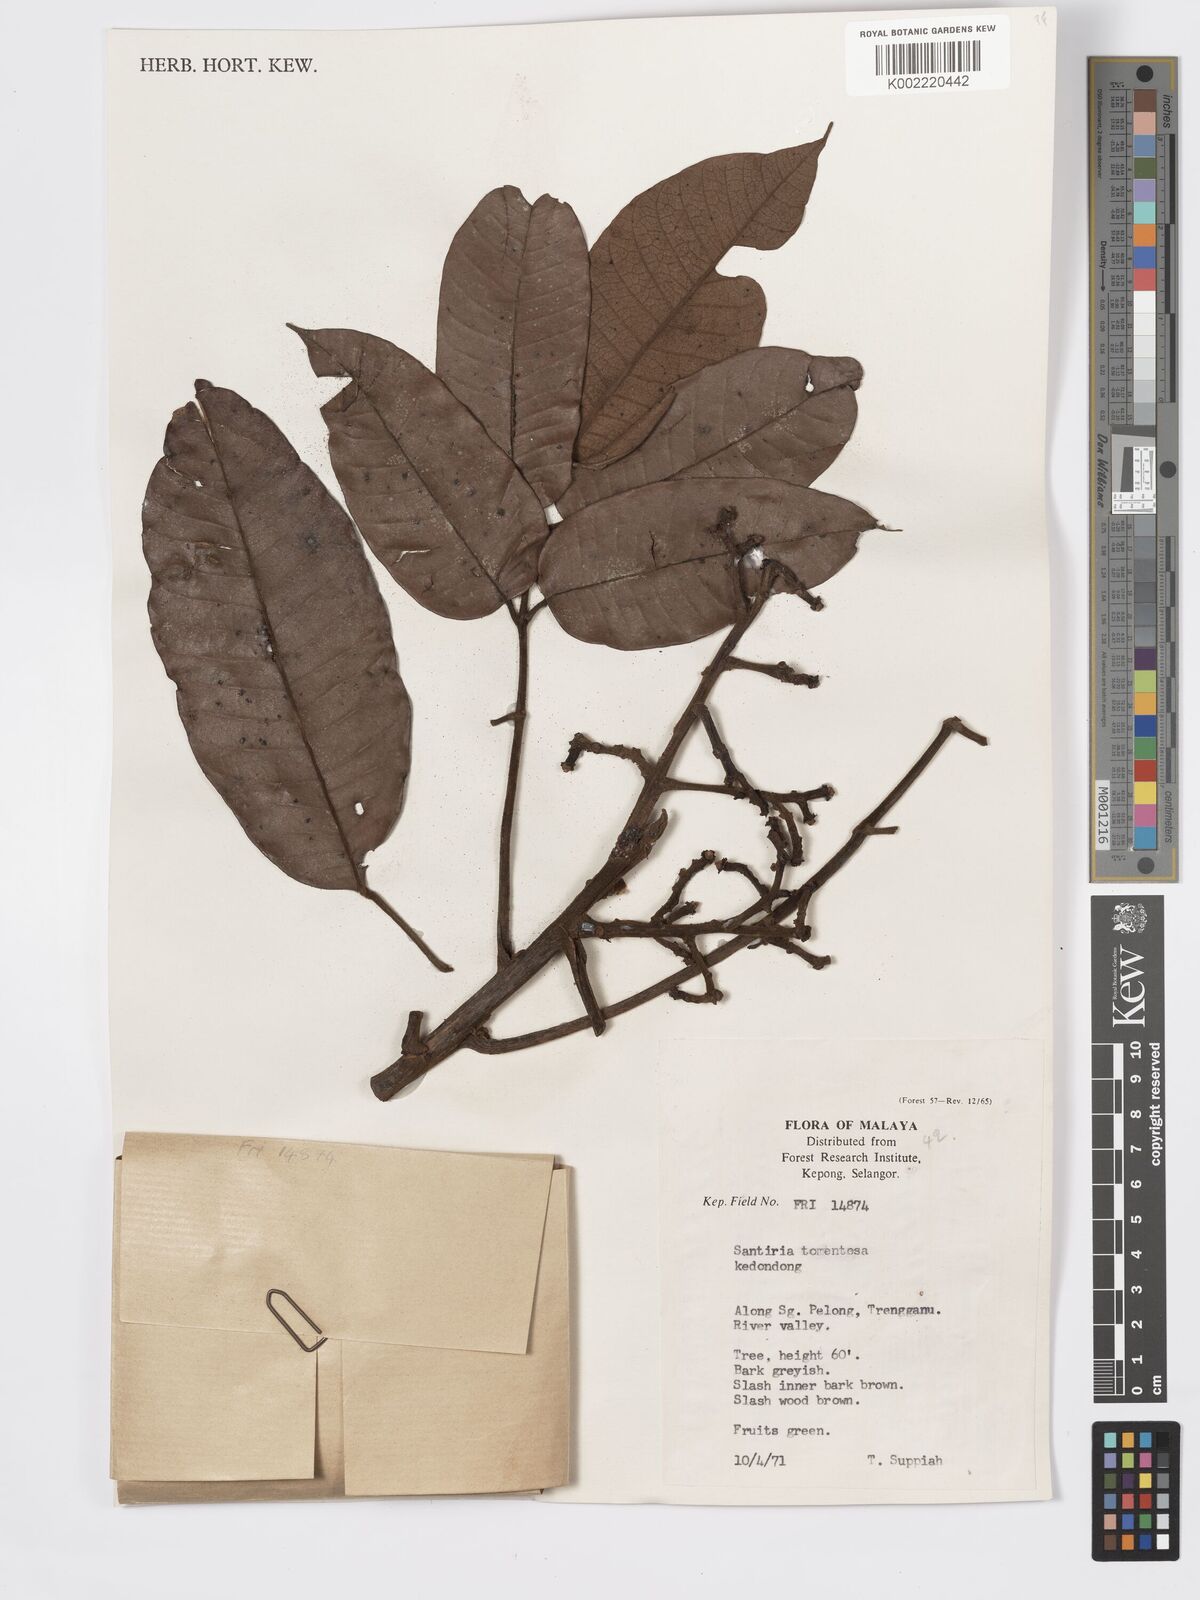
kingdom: Plantae
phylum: Tracheophyta
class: Magnoliopsida
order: Sapindales
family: Burseraceae
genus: Santiria
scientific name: Santiria tomentosa
